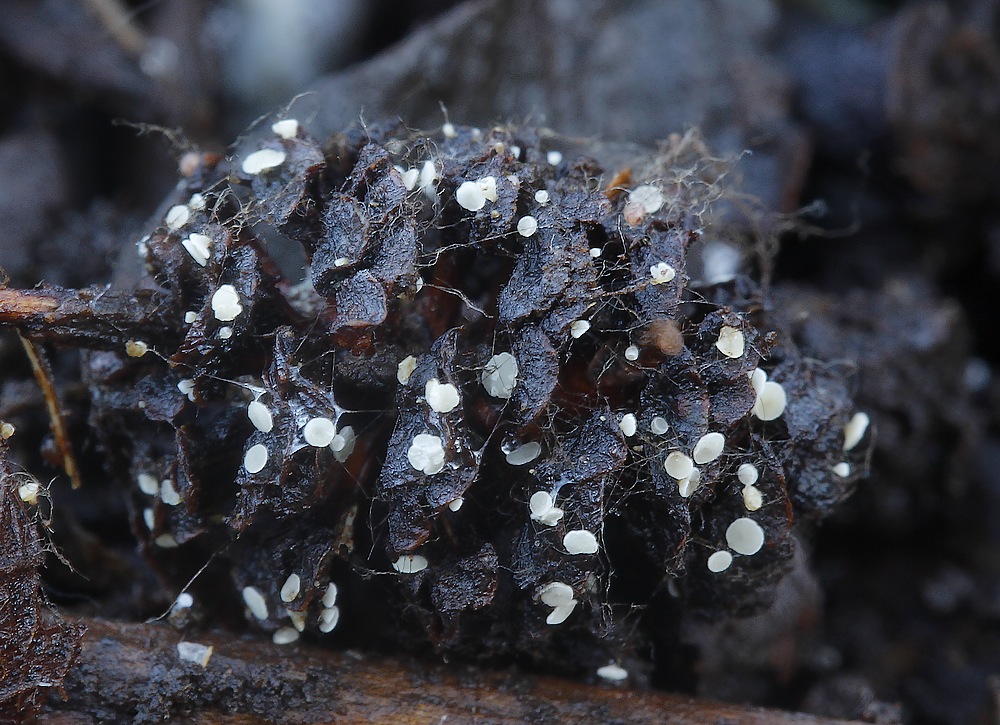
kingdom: Fungi
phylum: Ascomycota
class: Leotiomycetes
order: Helotiales
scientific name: Helotiales
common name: stilkskiveordenen
